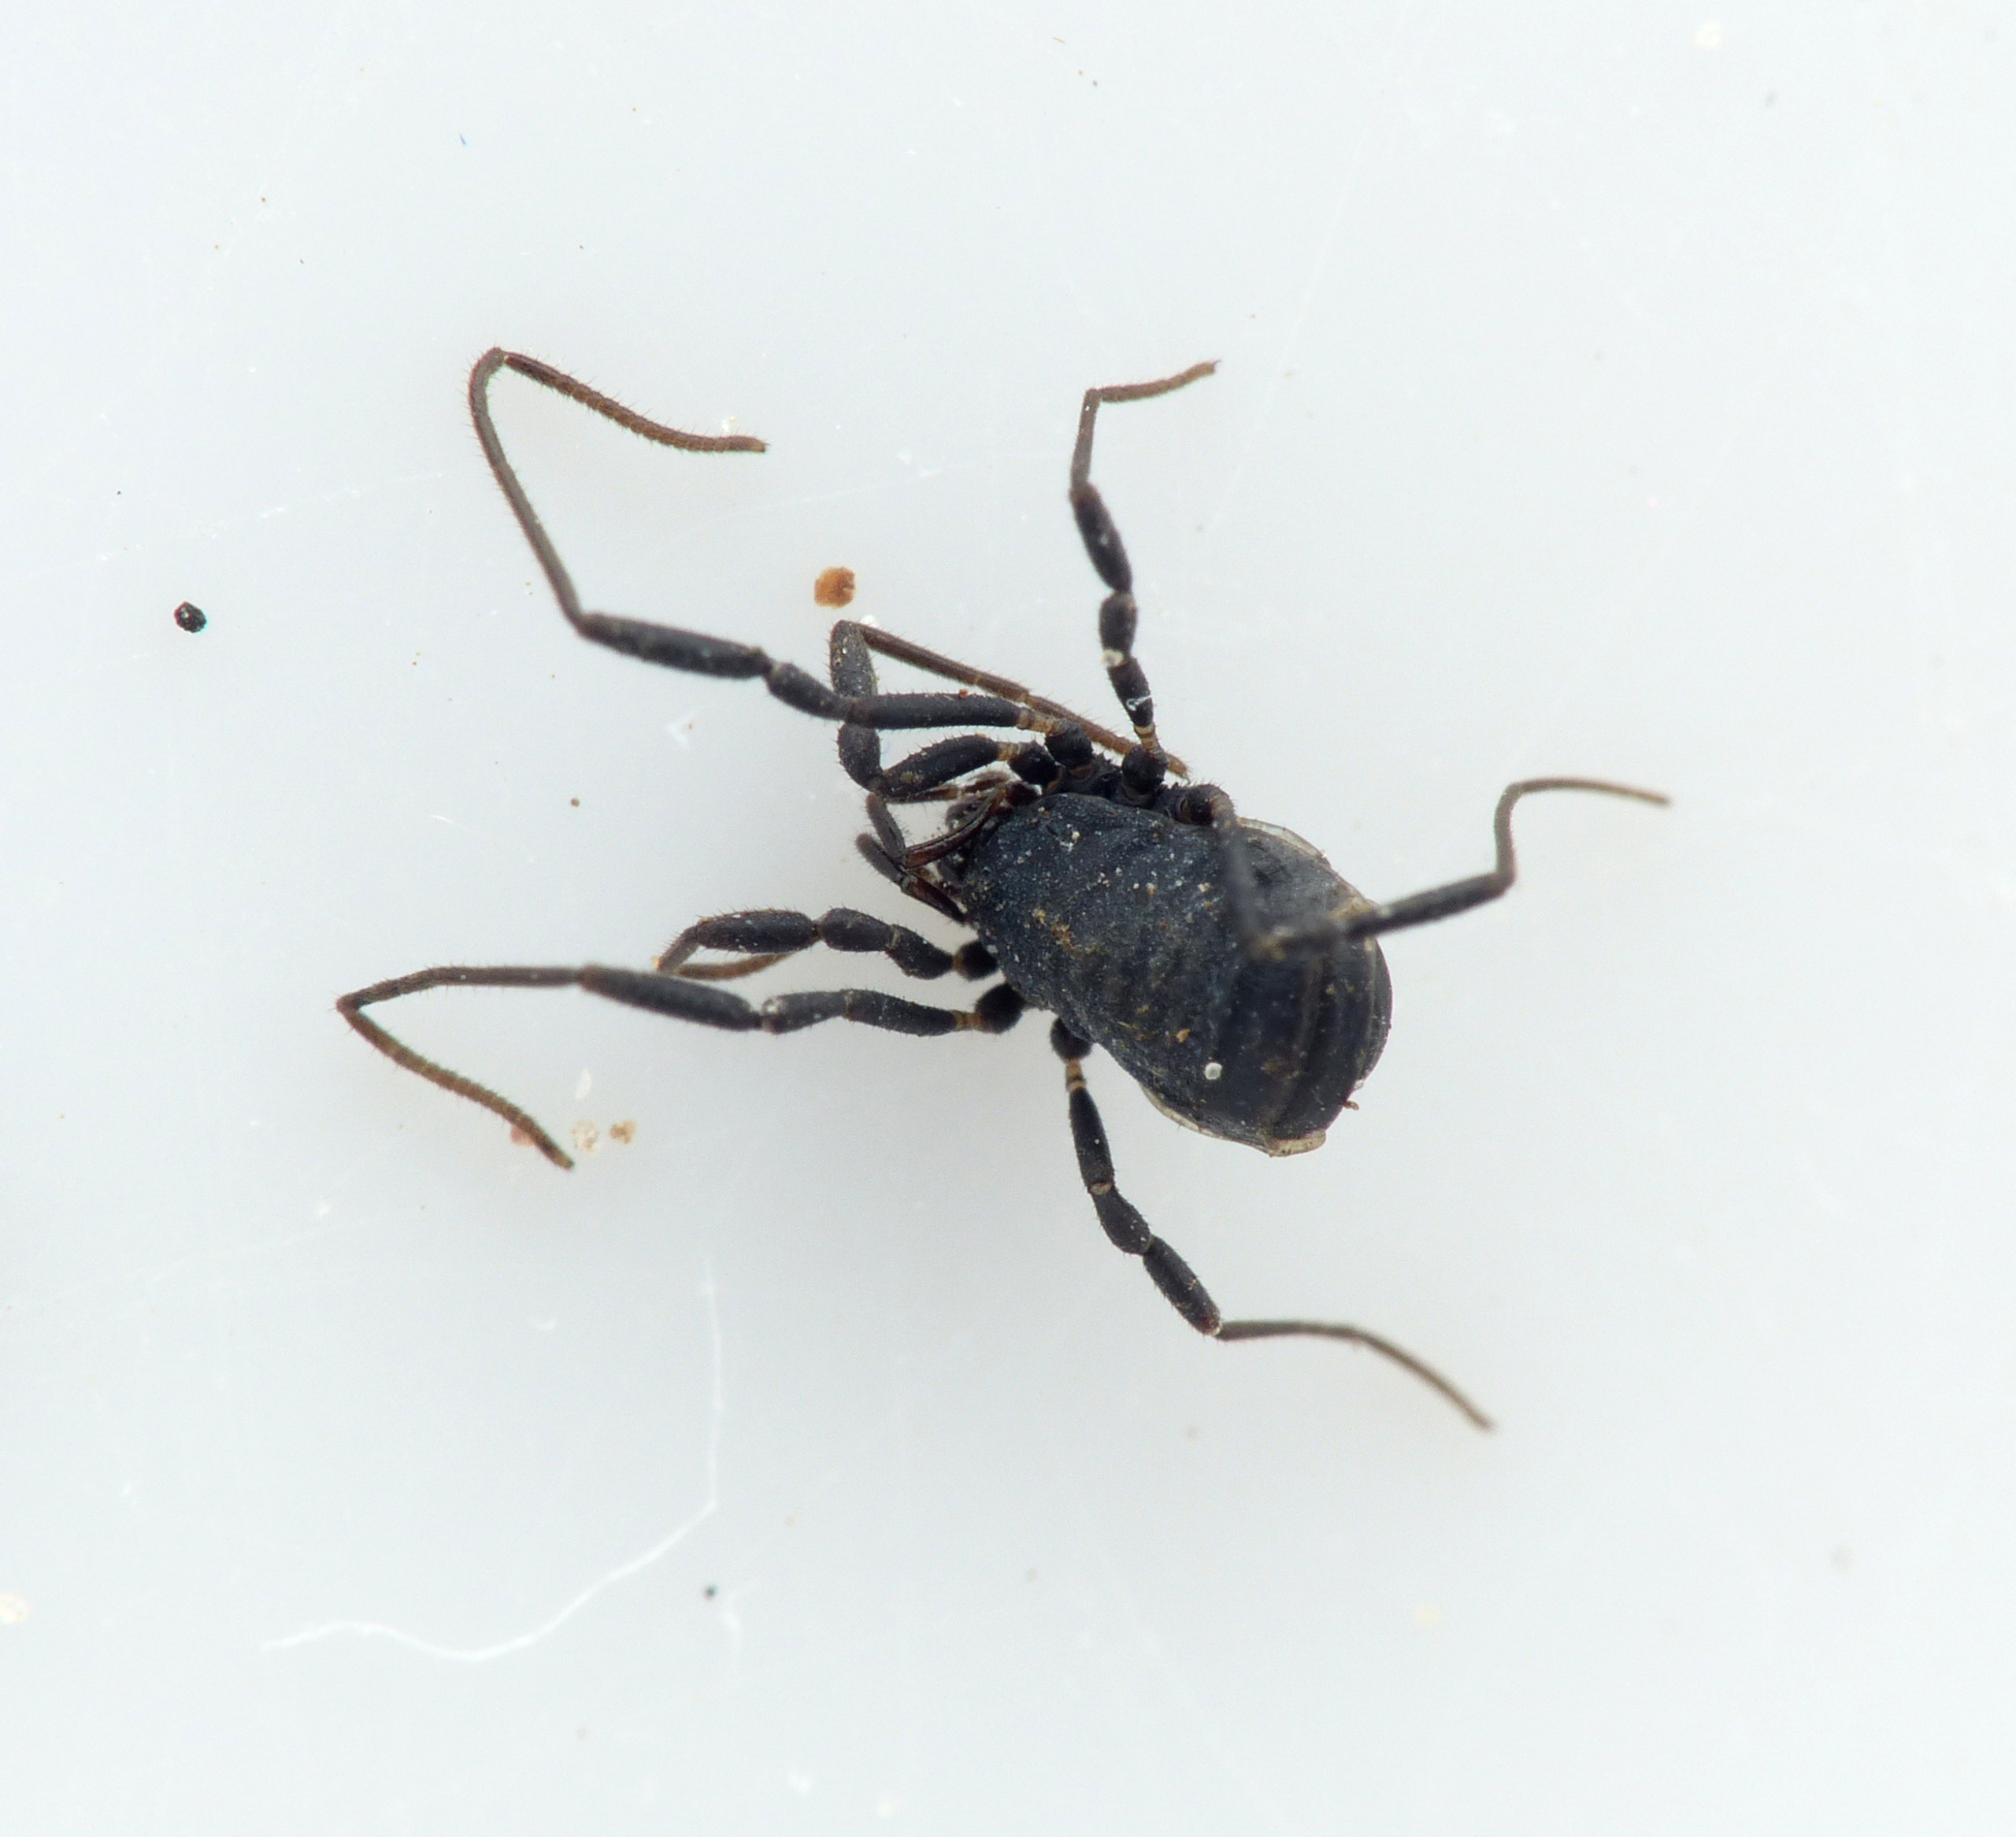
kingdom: Animalia
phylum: Arthropoda
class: Arachnida
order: Opiliones
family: Nemastomatidae
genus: Nemastoma
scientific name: Nemastoma dentigerum
